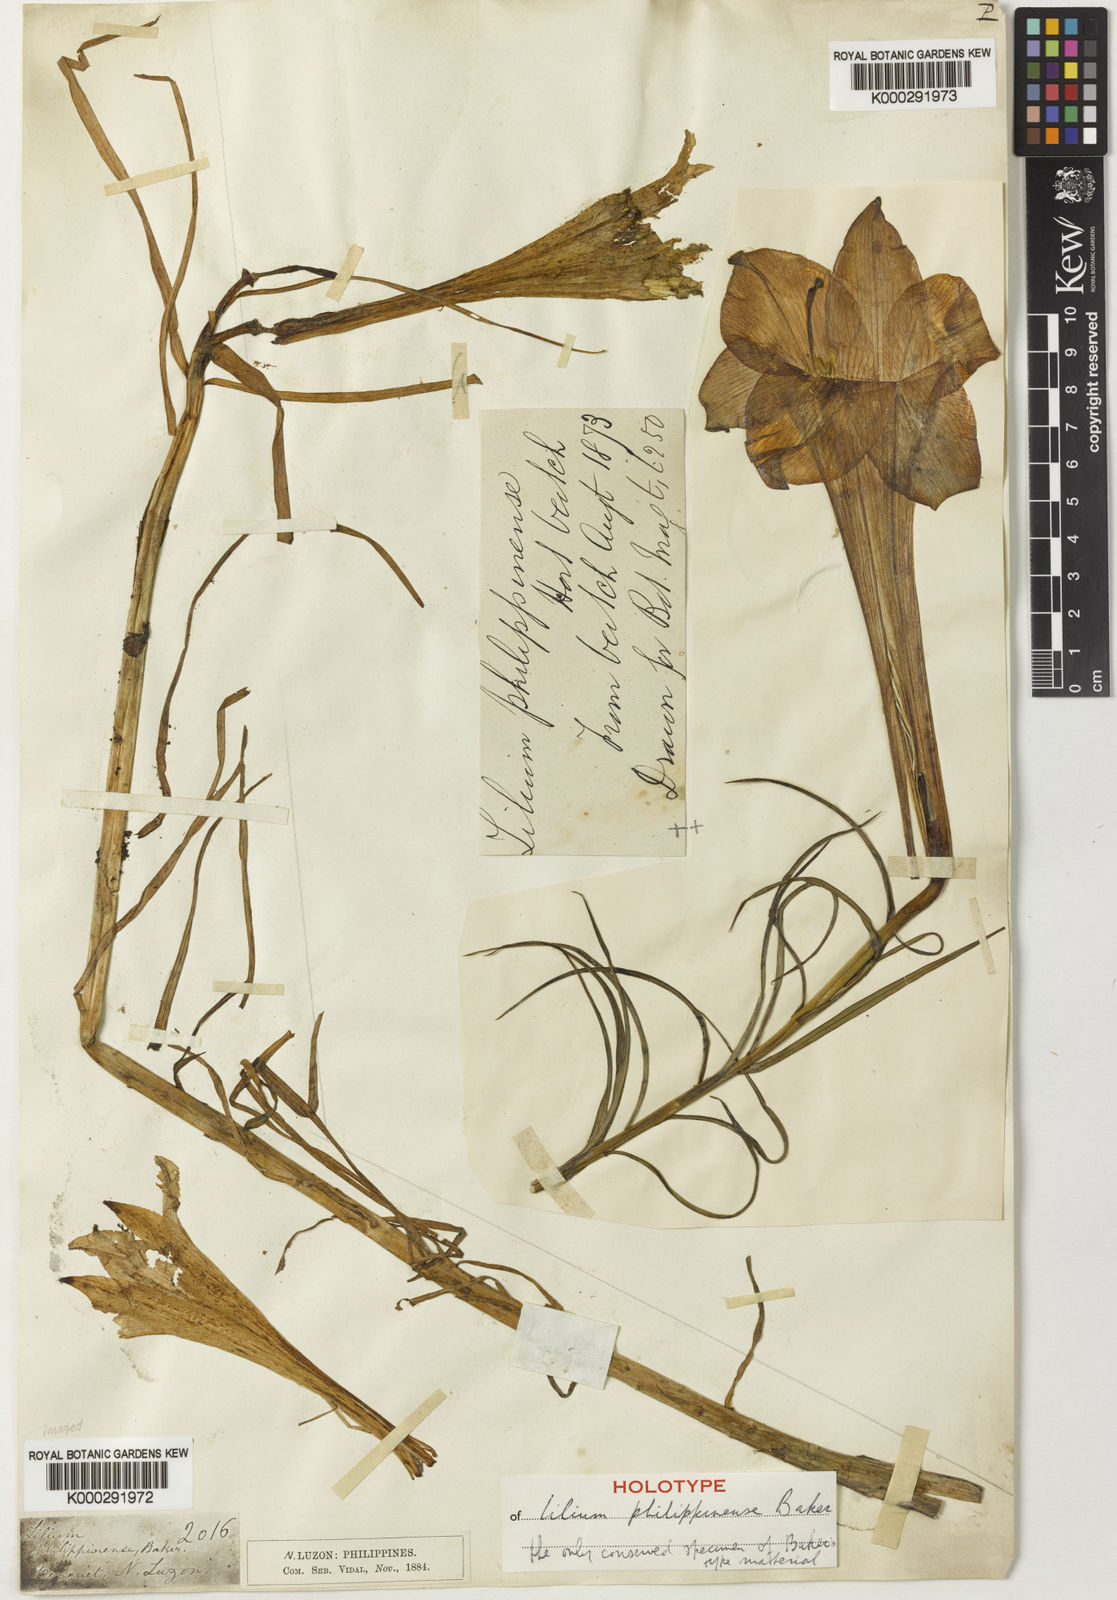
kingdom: Plantae
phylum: Tracheophyta
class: Liliopsida
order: Liliales
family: Liliaceae
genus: Lilium
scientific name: Lilium philippinense
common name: Philippine lily
